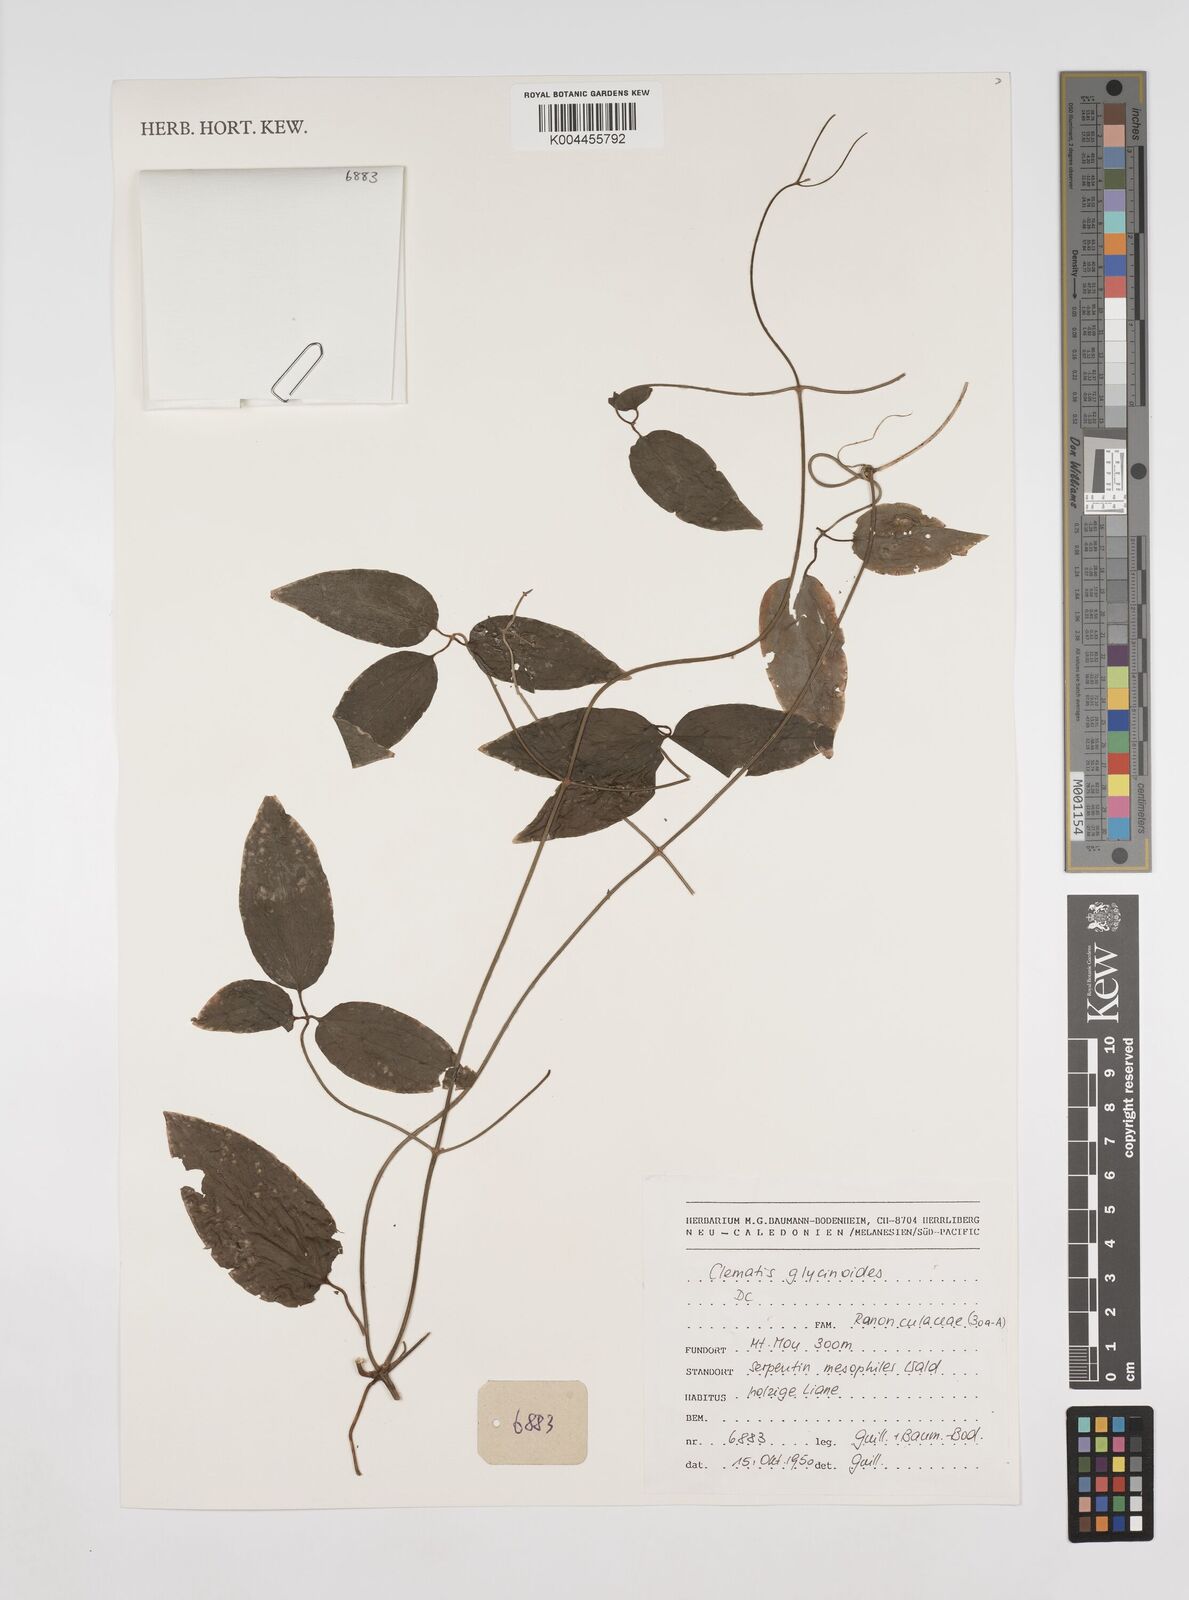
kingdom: Plantae
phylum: Tracheophyta
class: Magnoliopsida
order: Ranunculales
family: Ranunculaceae
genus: Clematis
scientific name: Clematis glycinoides
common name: Forest clematis
